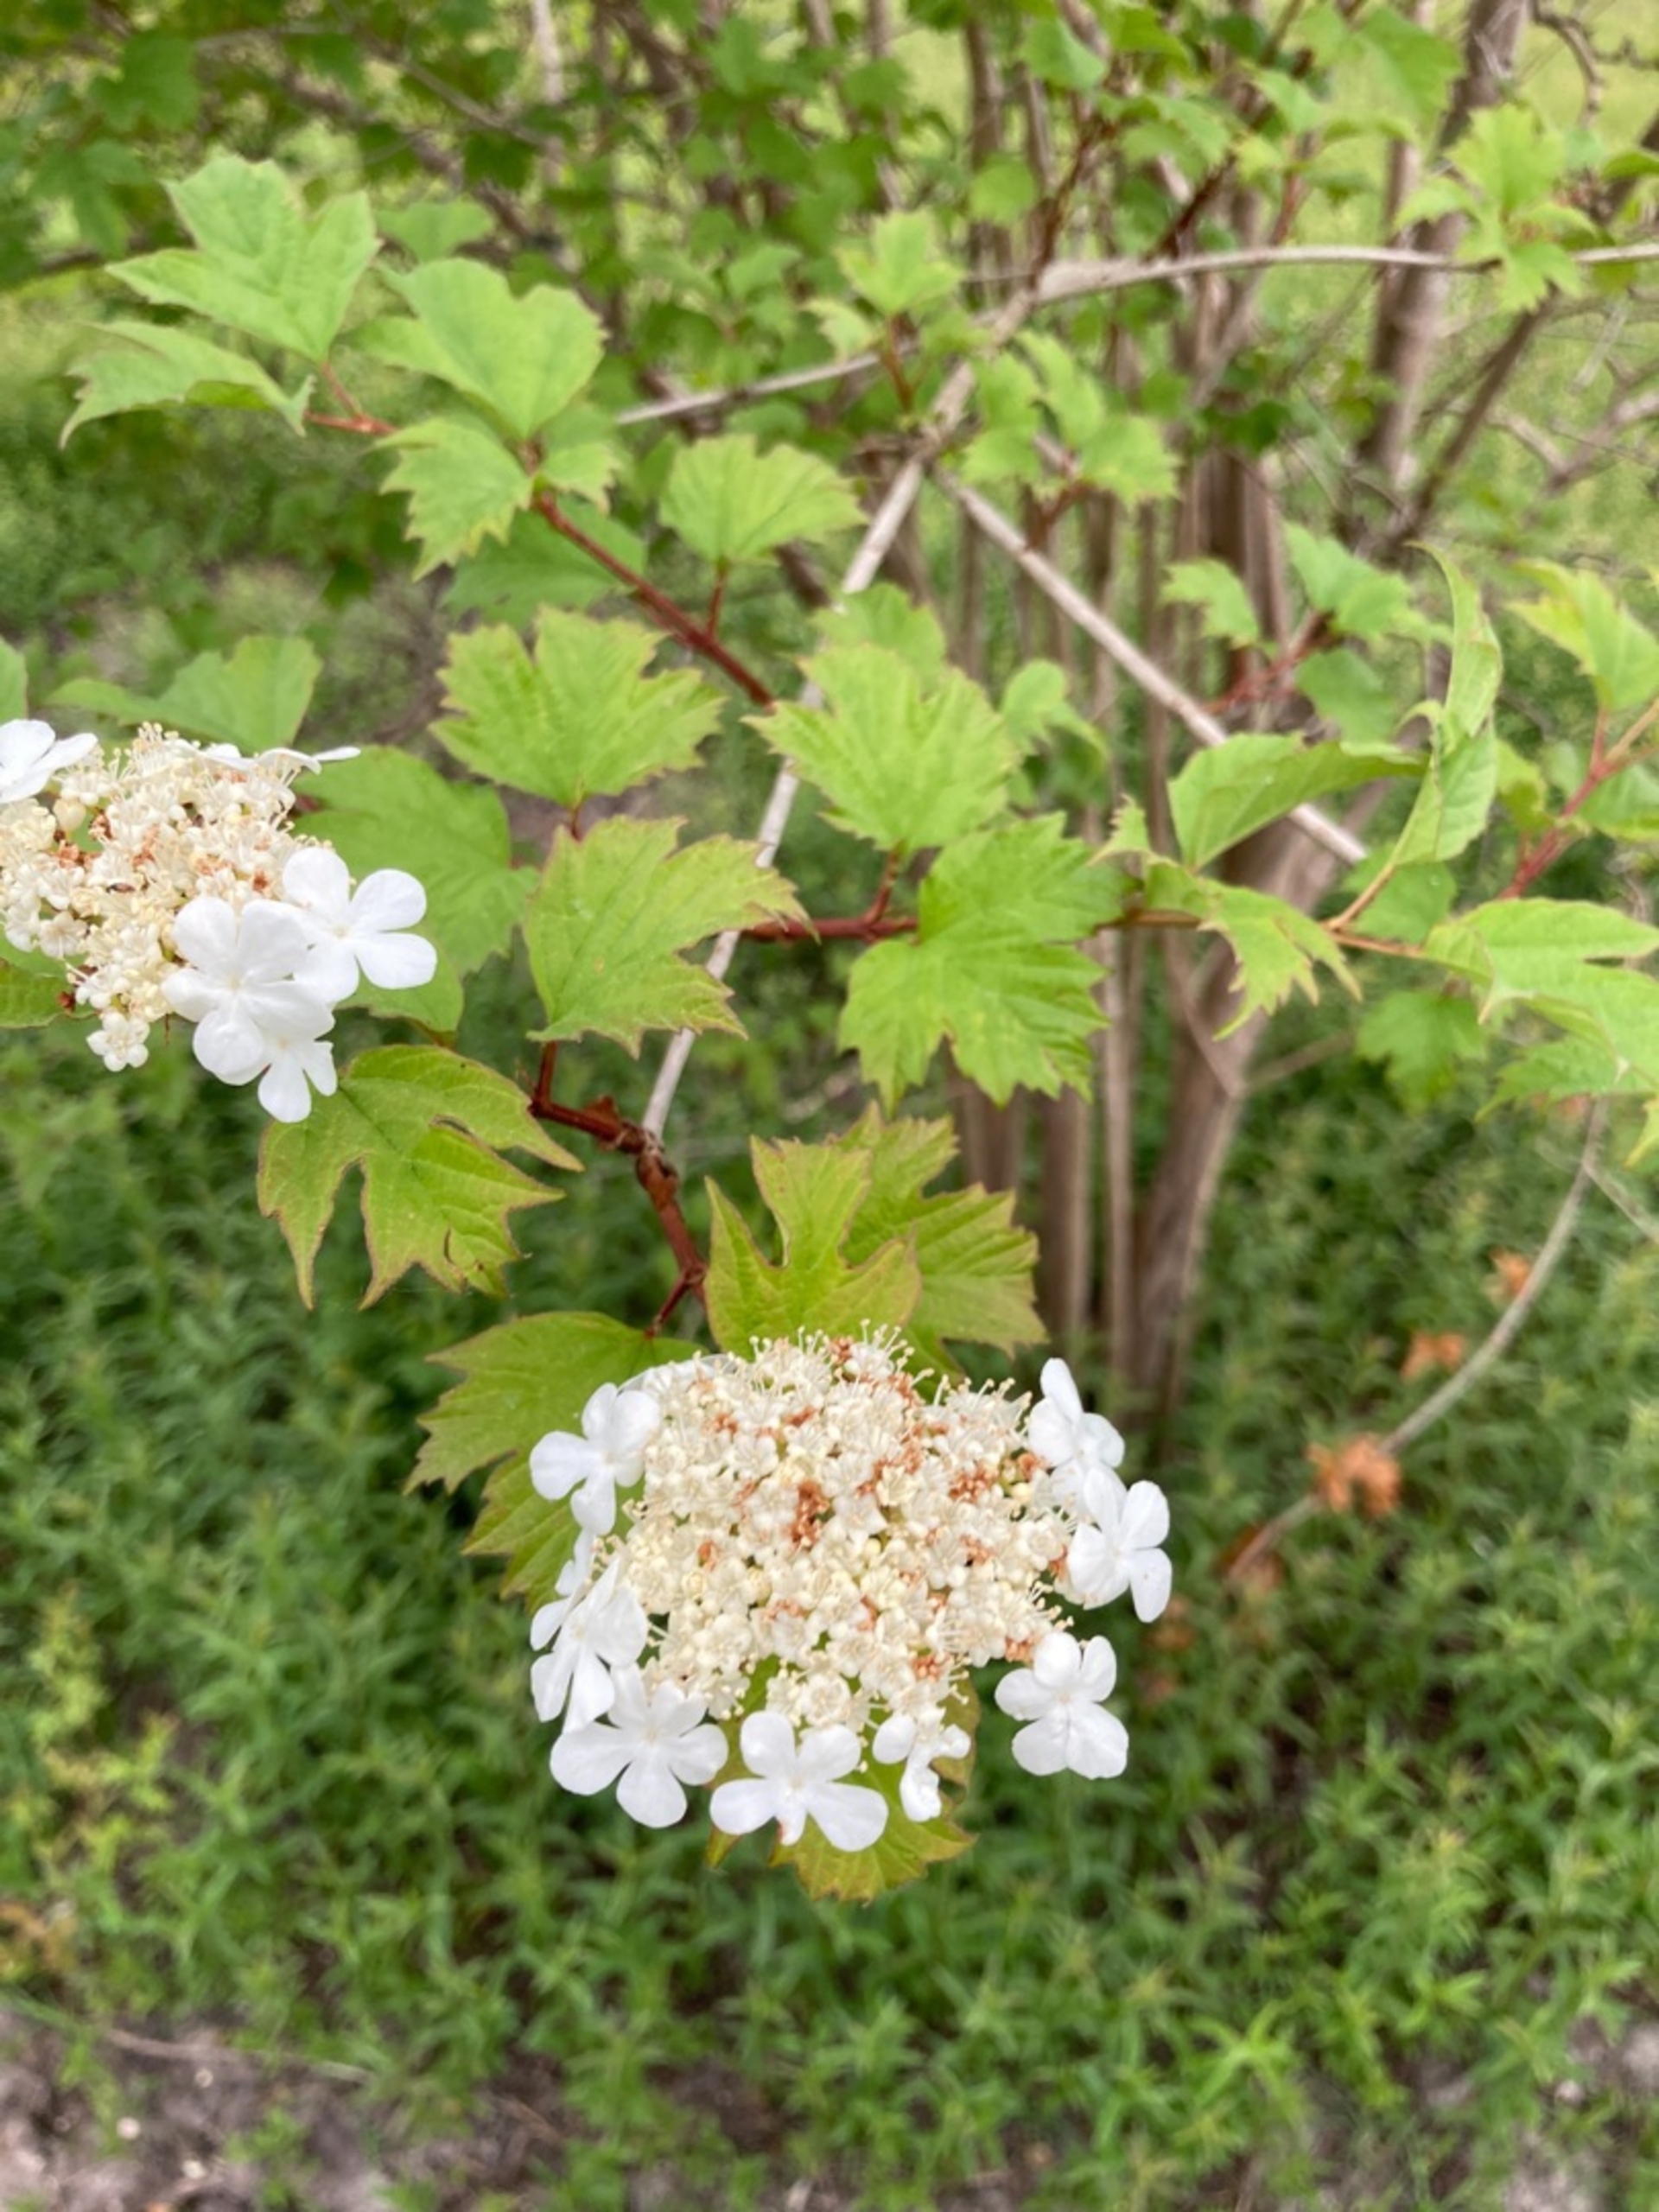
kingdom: Plantae
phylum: Tracheophyta
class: Magnoliopsida
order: Dipsacales
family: Viburnaceae
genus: Viburnum
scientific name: Viburnum opulus
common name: Kvalkved
